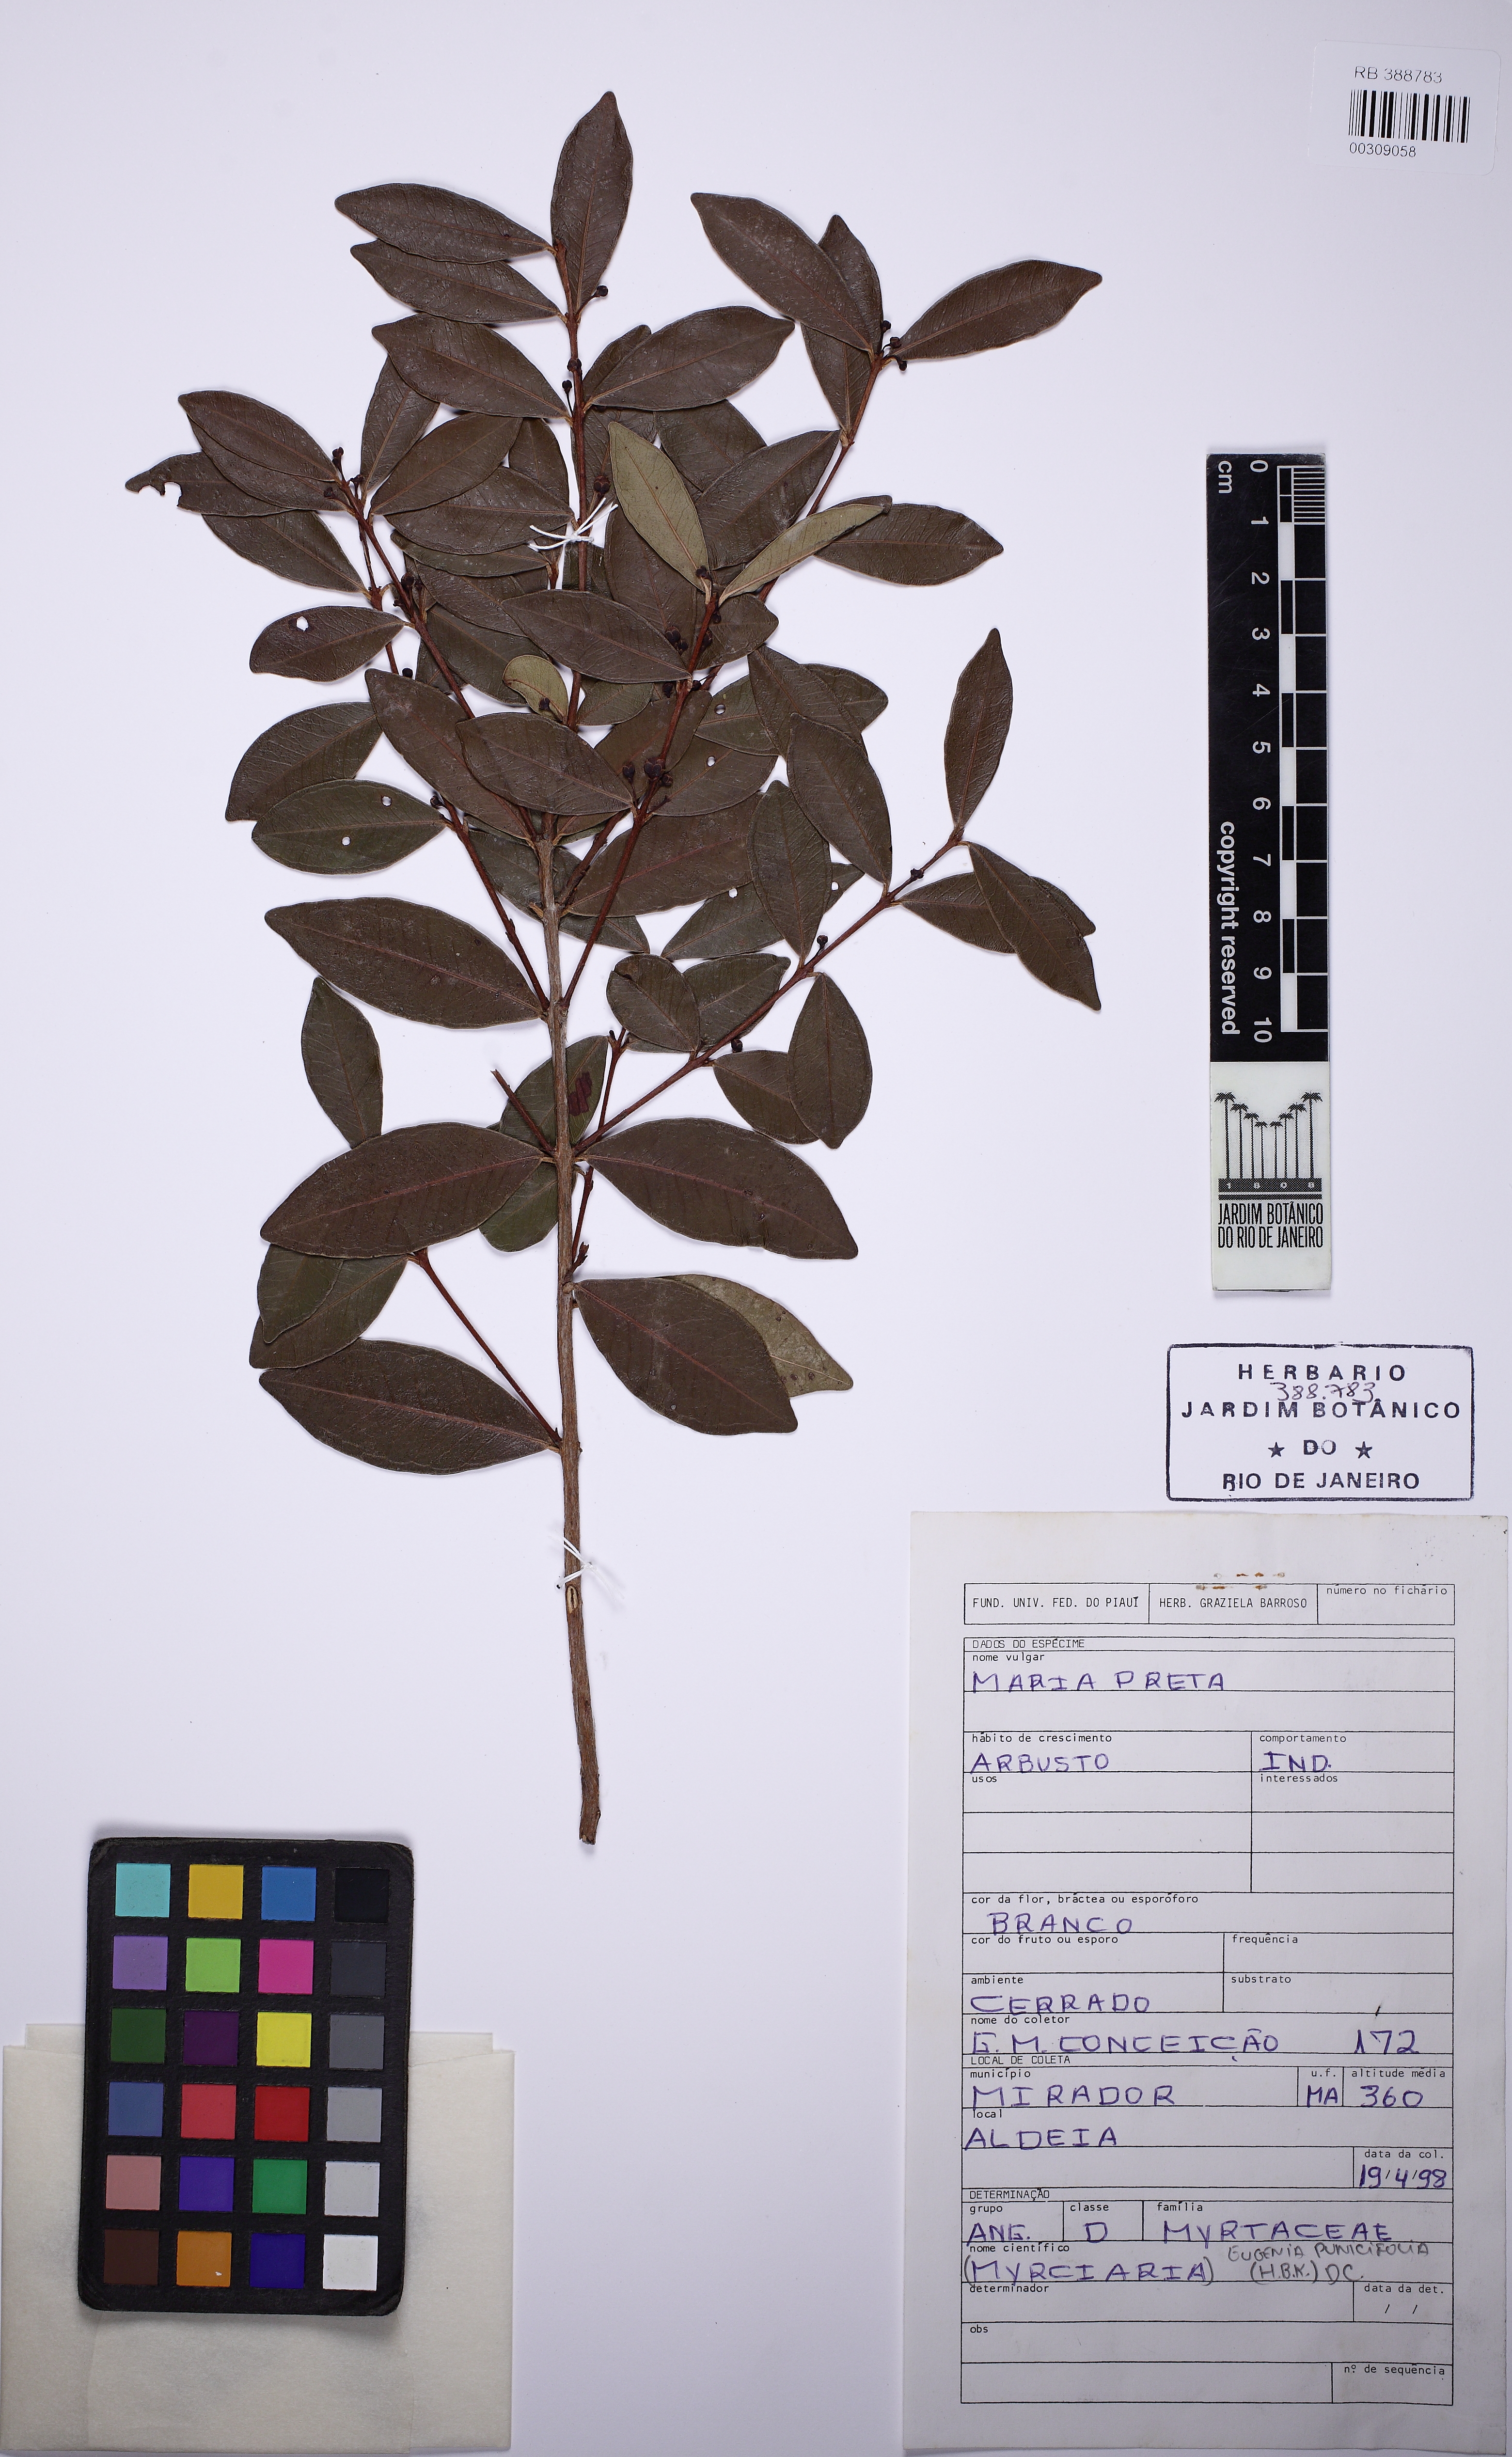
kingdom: Plantae
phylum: Tracheophyta
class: Magnoliopsida
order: Myrtales
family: Myrtaceae
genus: Eugenia
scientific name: Eugenia punicifolia
